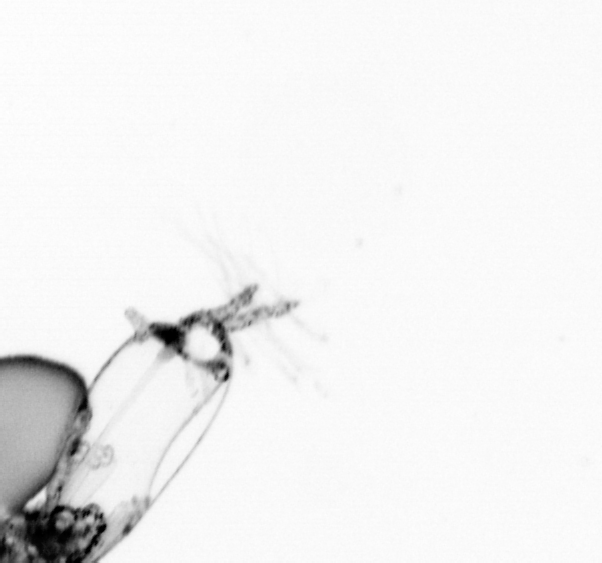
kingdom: Animalia
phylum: Arthropoda
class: Copepoda
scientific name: Copepoda
